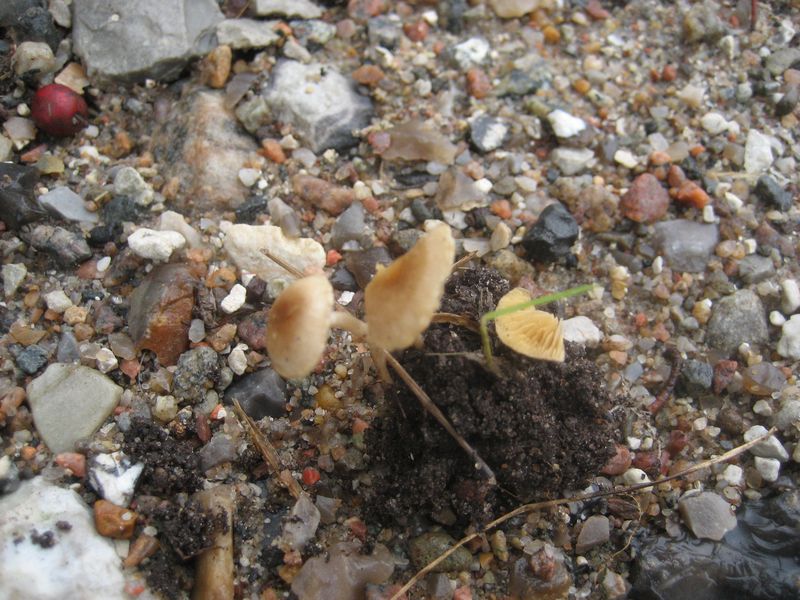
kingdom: Fungi
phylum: Basidiomycota
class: Agaricomycetes
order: Agaricales
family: Tubariaceae
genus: Tubaria
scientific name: Tubaria dispersa
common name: tjørne-fnughat
